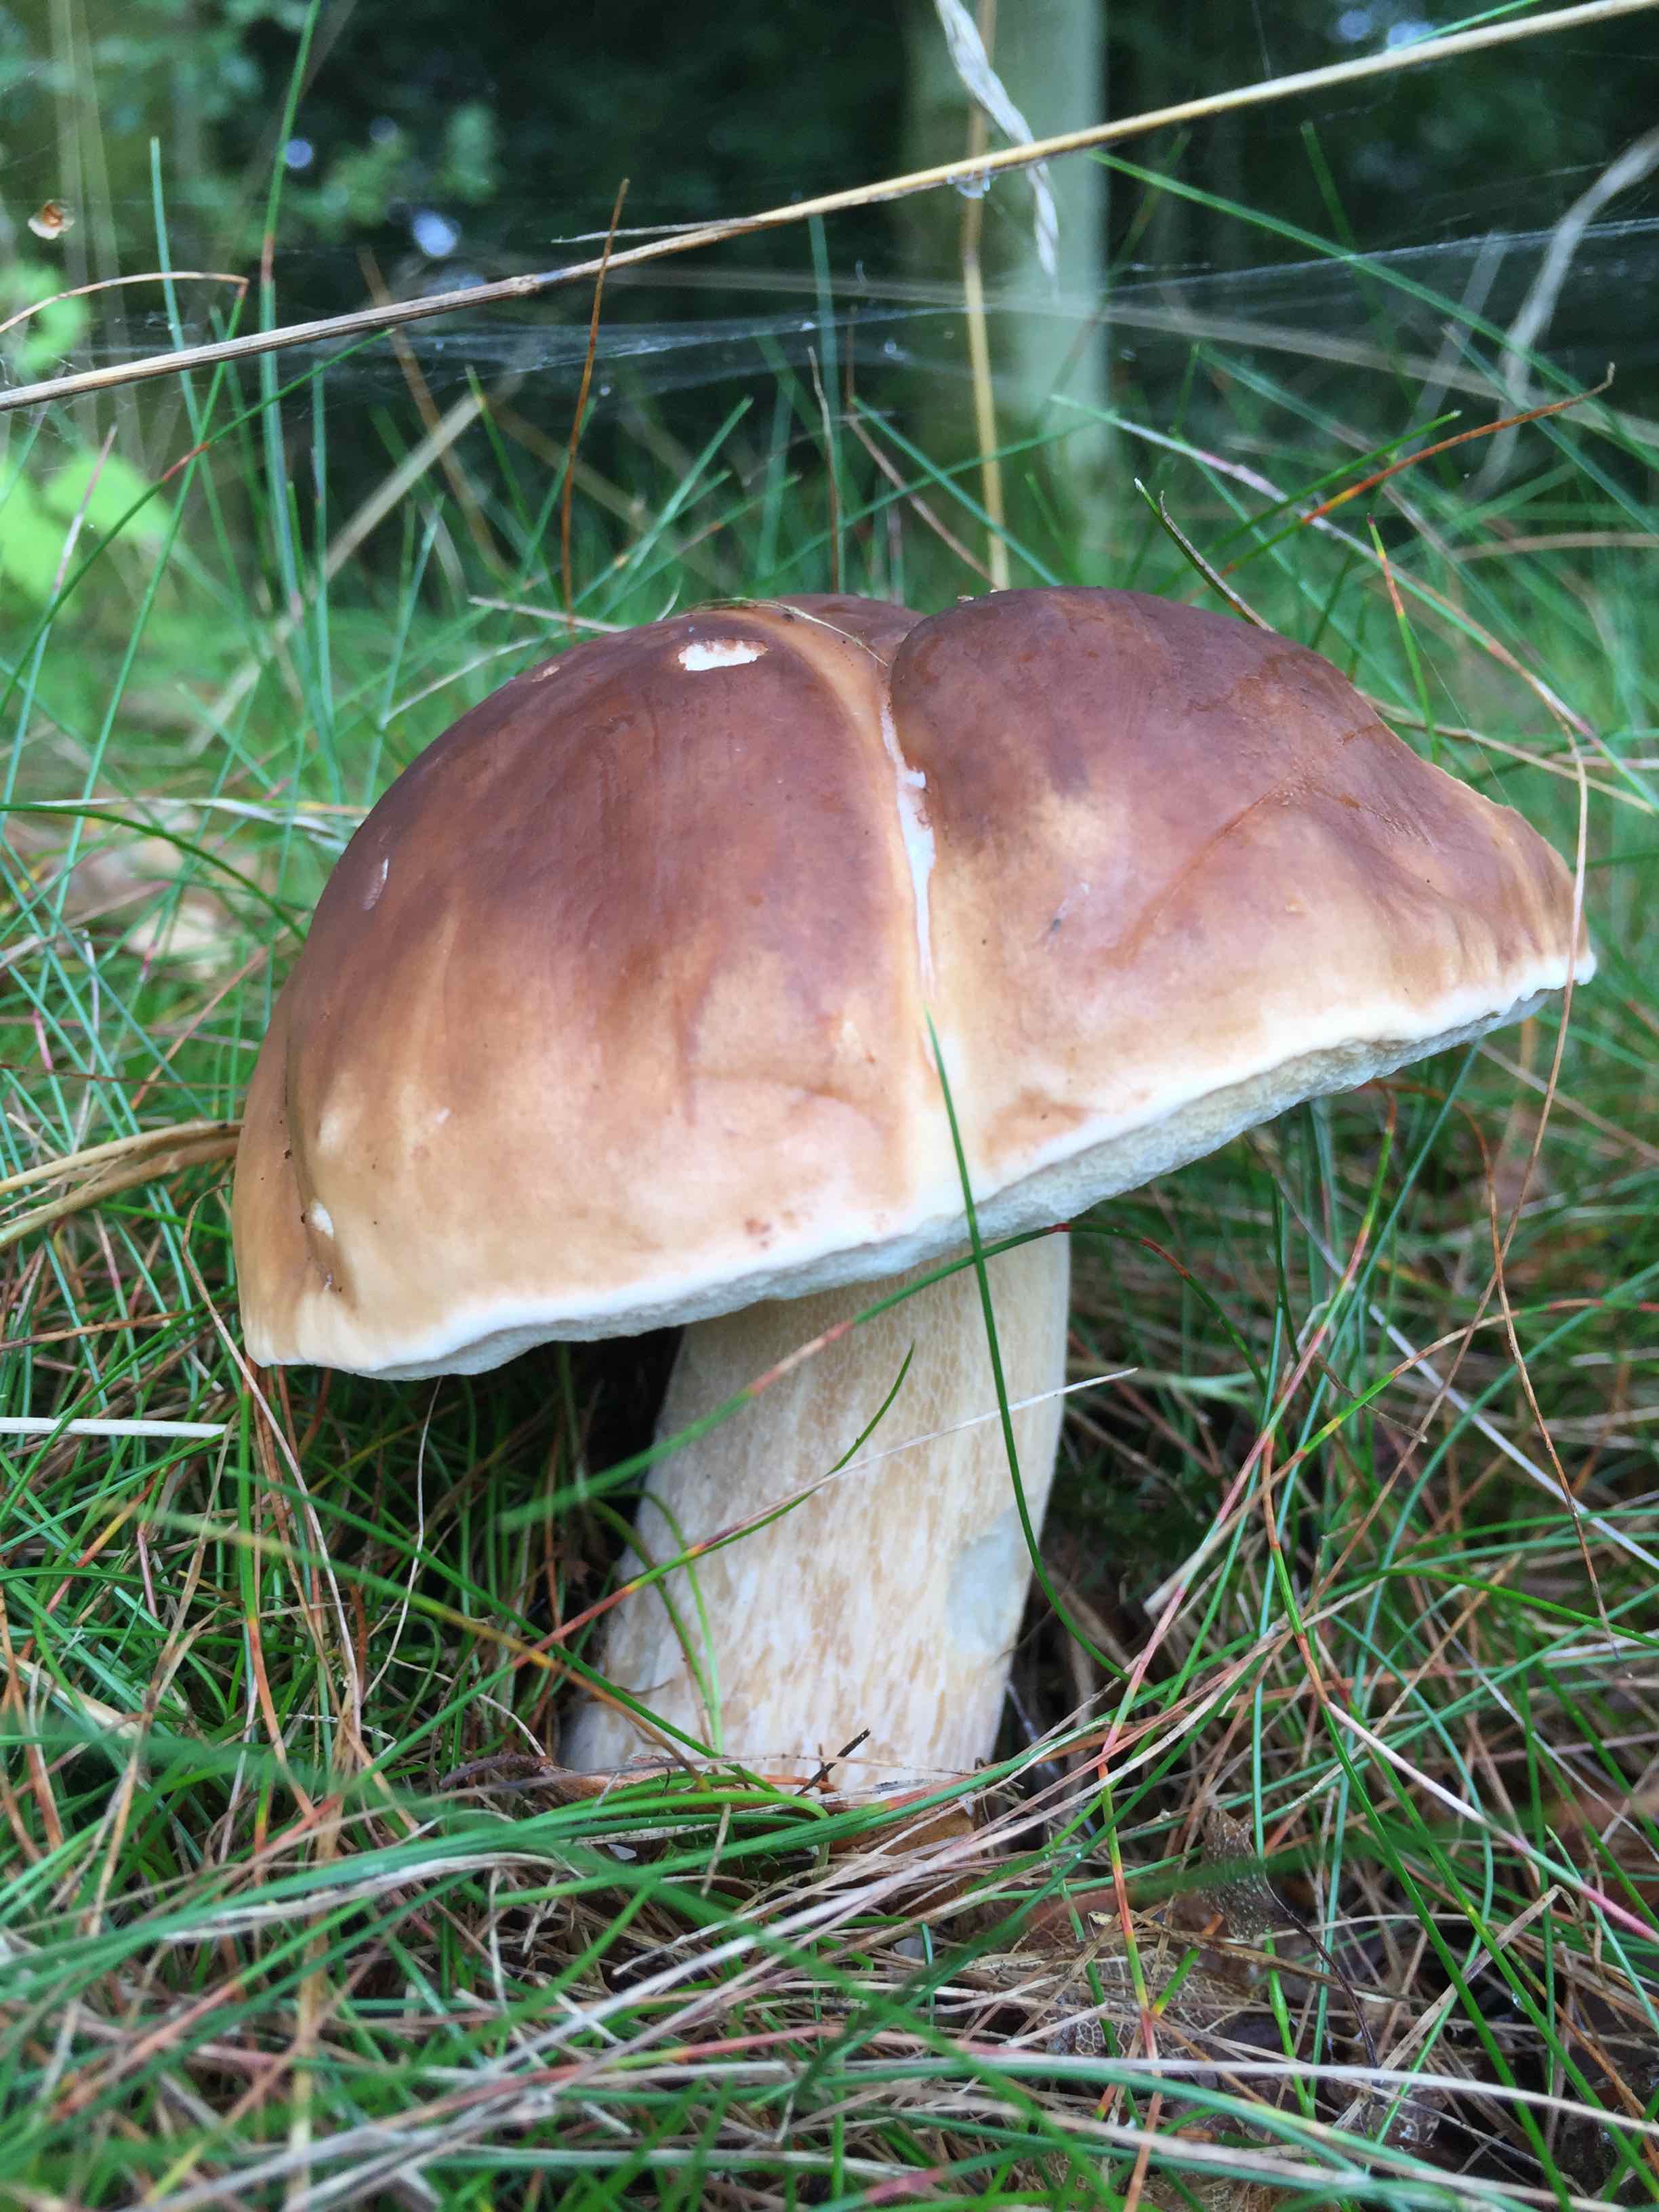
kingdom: Fungi
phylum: Basidiomycota
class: Agaricomycetes
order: Boletales
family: Boletaceae
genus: Boletus
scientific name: Boletus edulis
